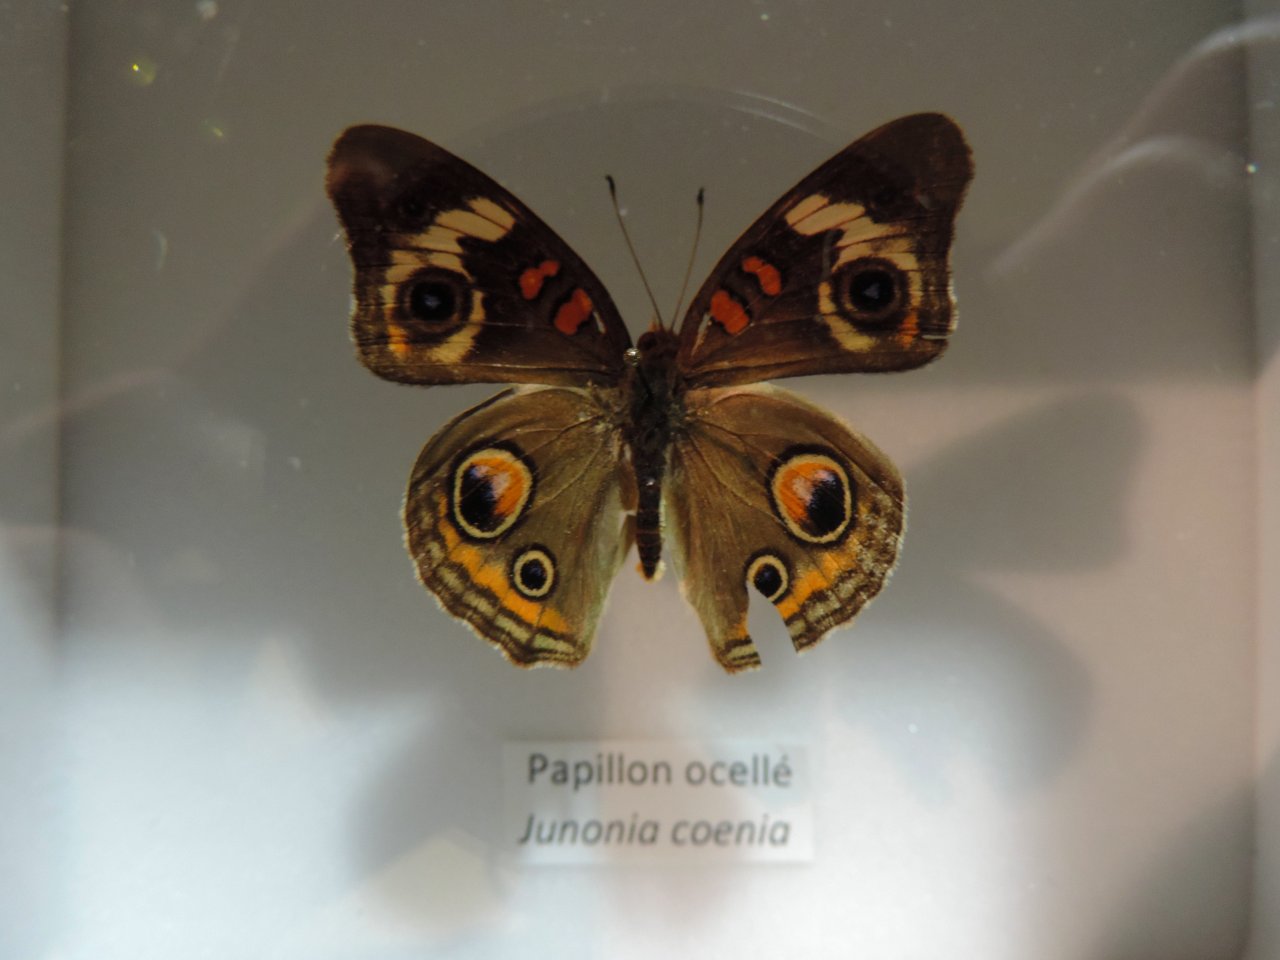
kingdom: Animalia
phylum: Arthropoda
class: Insecta
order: Lepidoptera
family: Nymphalidae
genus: Junonia
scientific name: Junonia coenia
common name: Common Buckeye
